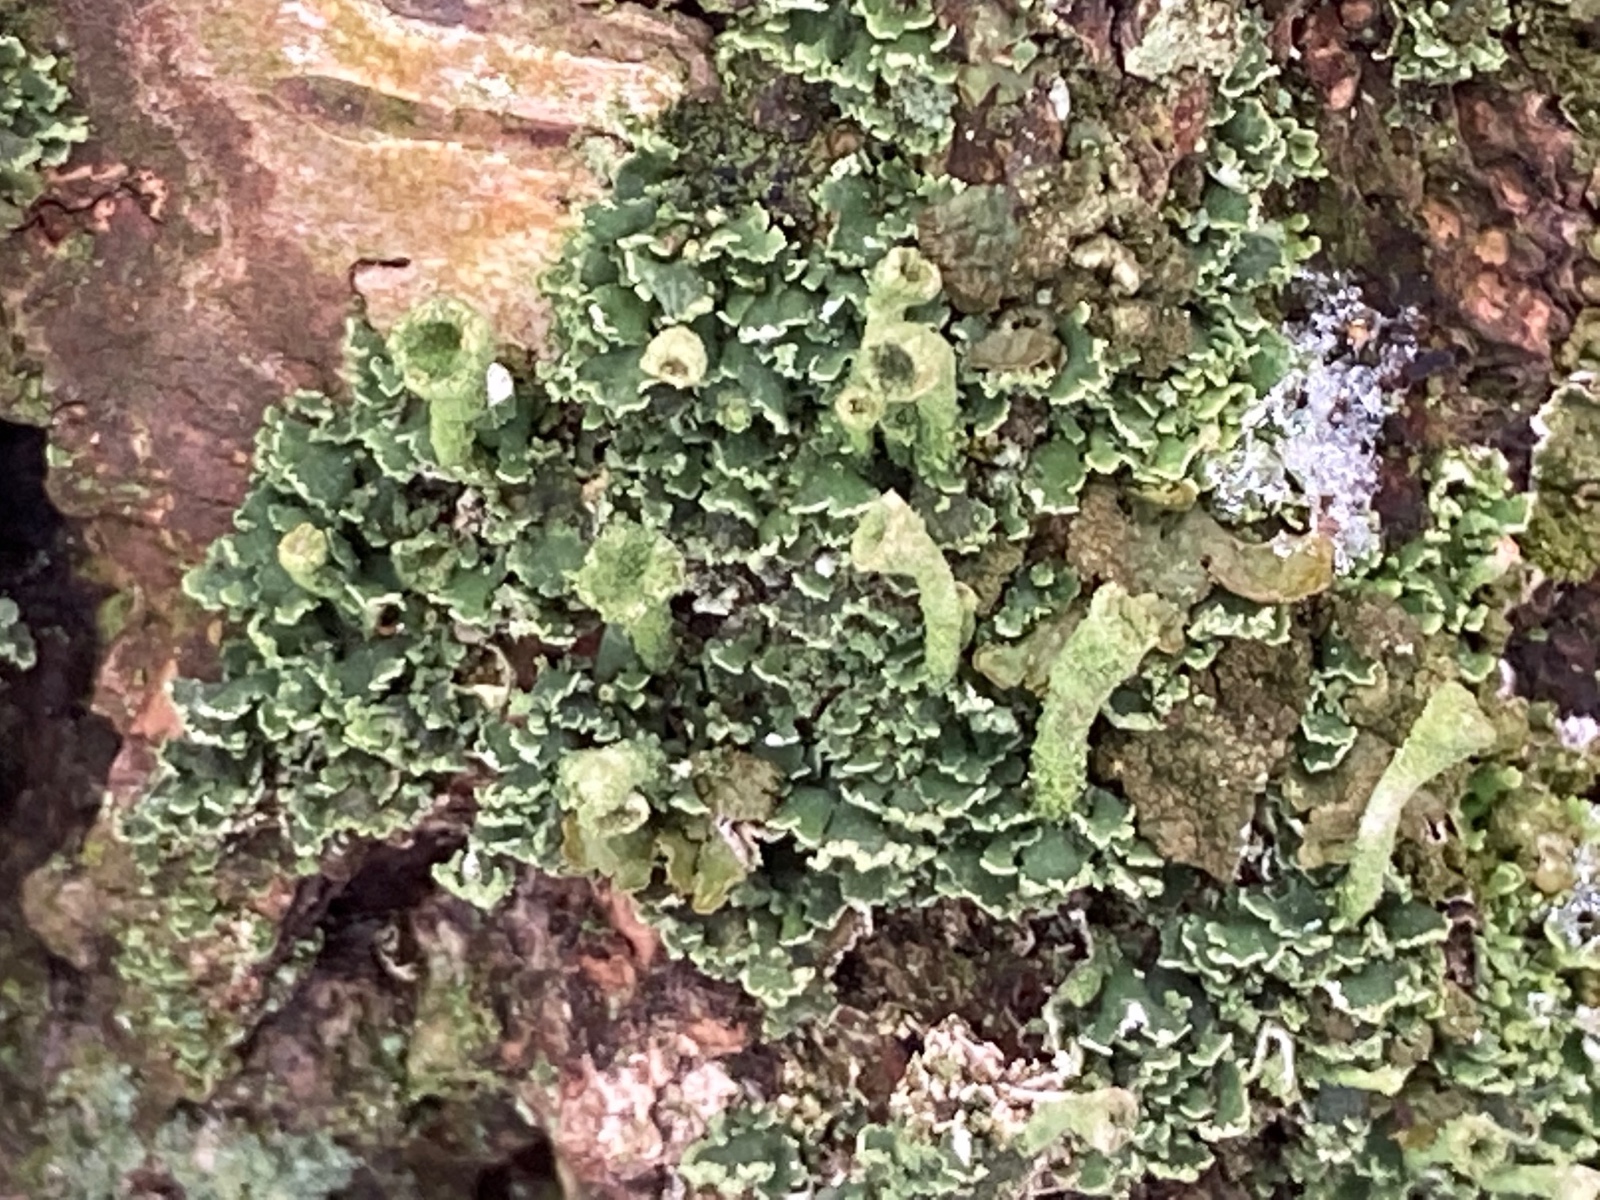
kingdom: Fungi
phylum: Ascomycota
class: Lecanoromycetes
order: Lecanorales
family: Cladoniaceae
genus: Cladonia
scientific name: Cladonia
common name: brungrøn bægerlav
